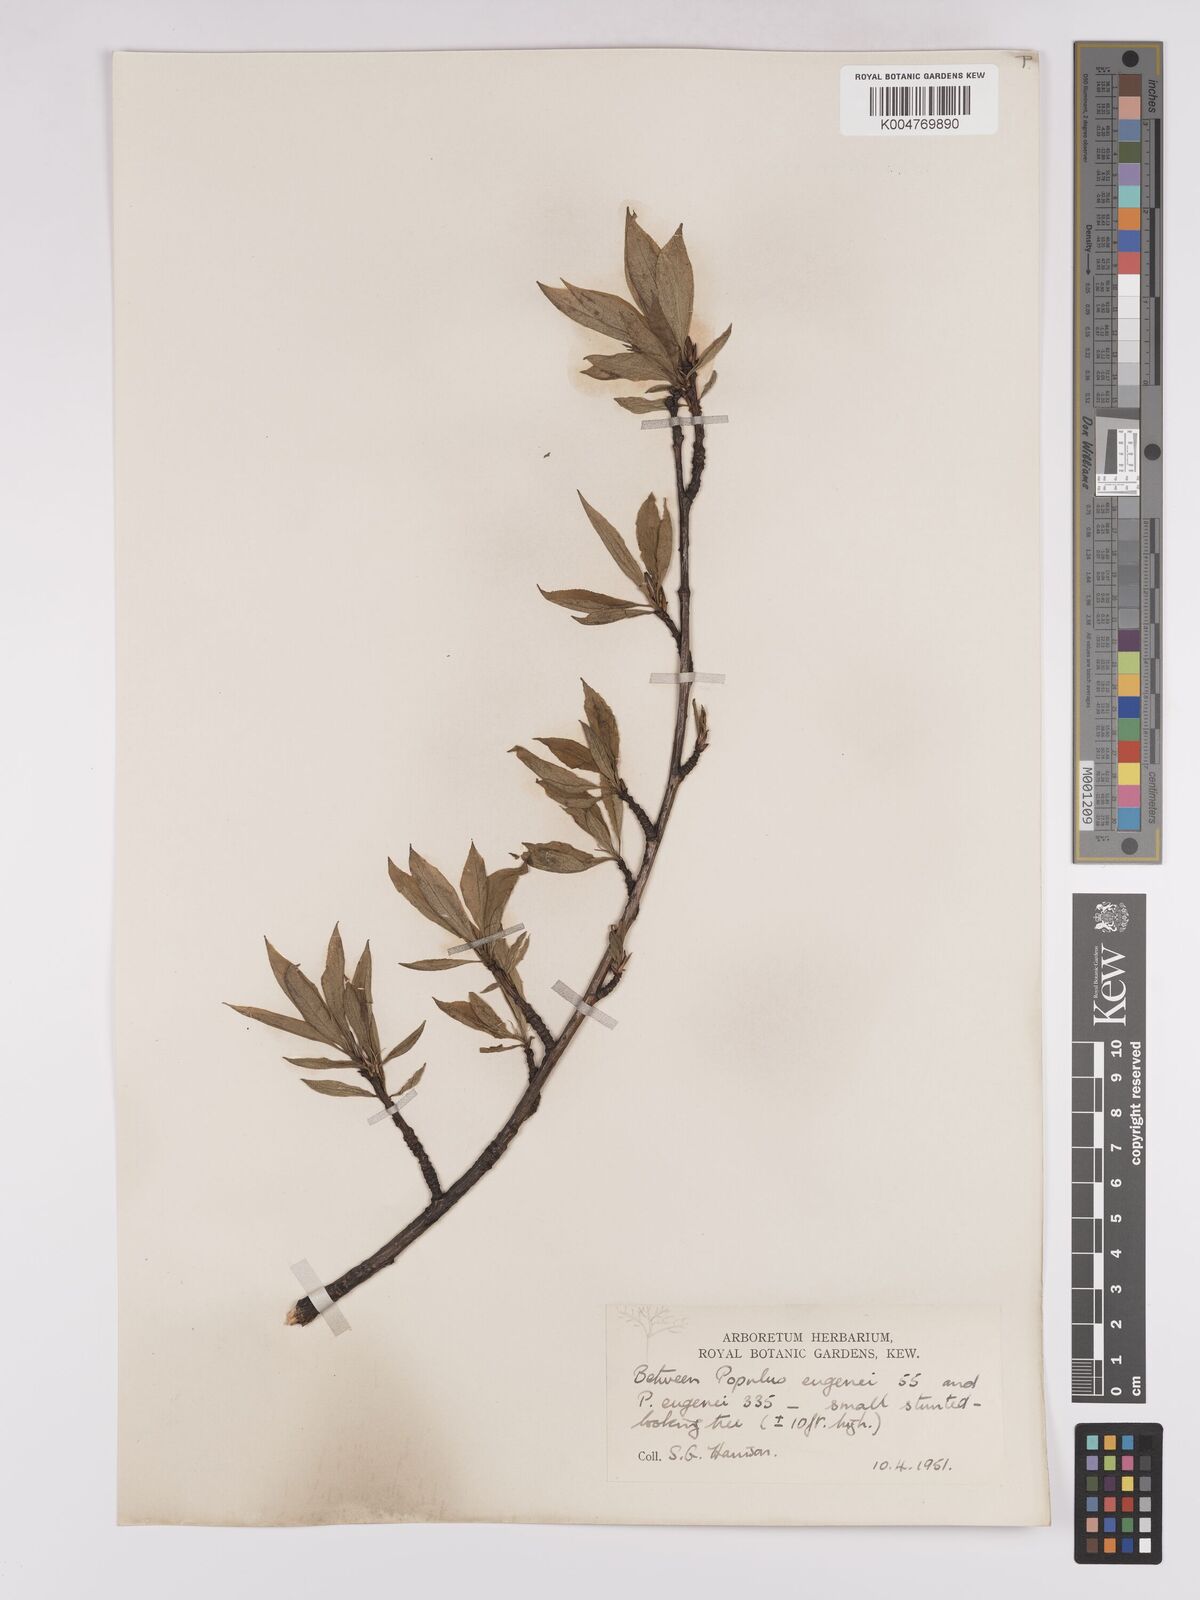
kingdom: Plantae
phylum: Tracheophyta
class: Magnoliopsida
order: Malpighiales
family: Salicaceae
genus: Populus
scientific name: Populus dubia
